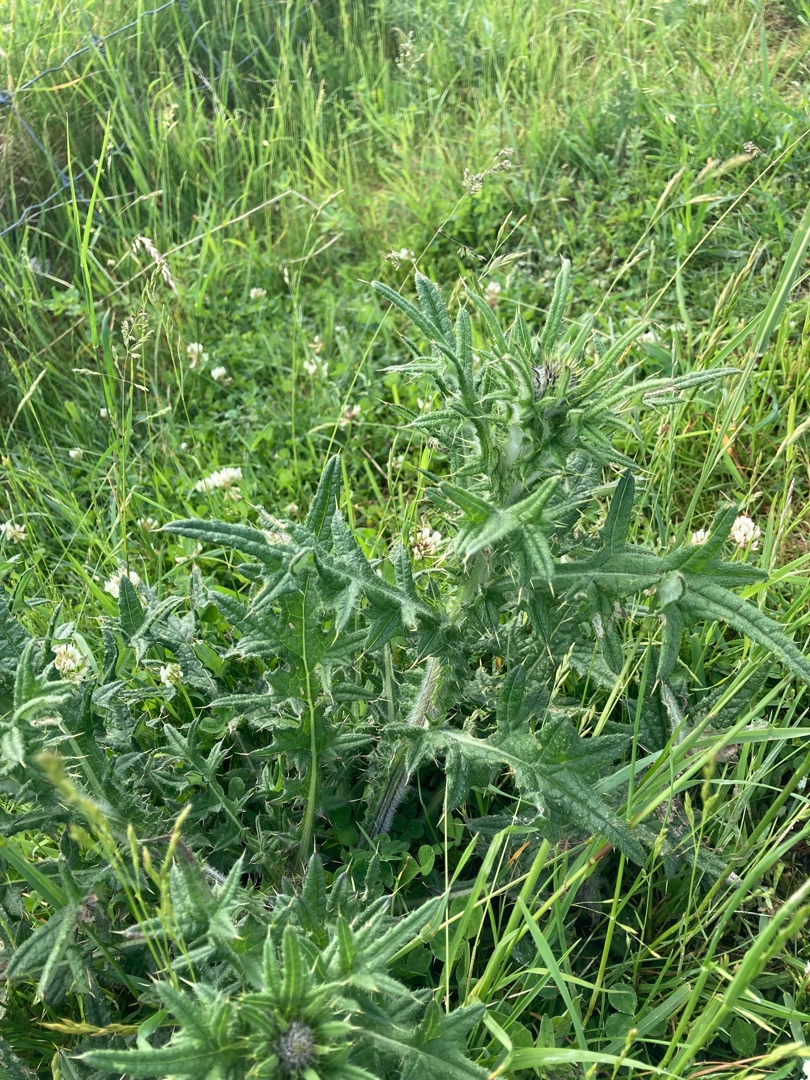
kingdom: Plantae
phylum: Tracheophyta
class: Magnoliopsida
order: Asterales
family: Asteraceae
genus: Cirsium
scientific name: Cirsium vulgare
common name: Horse-tidsel
